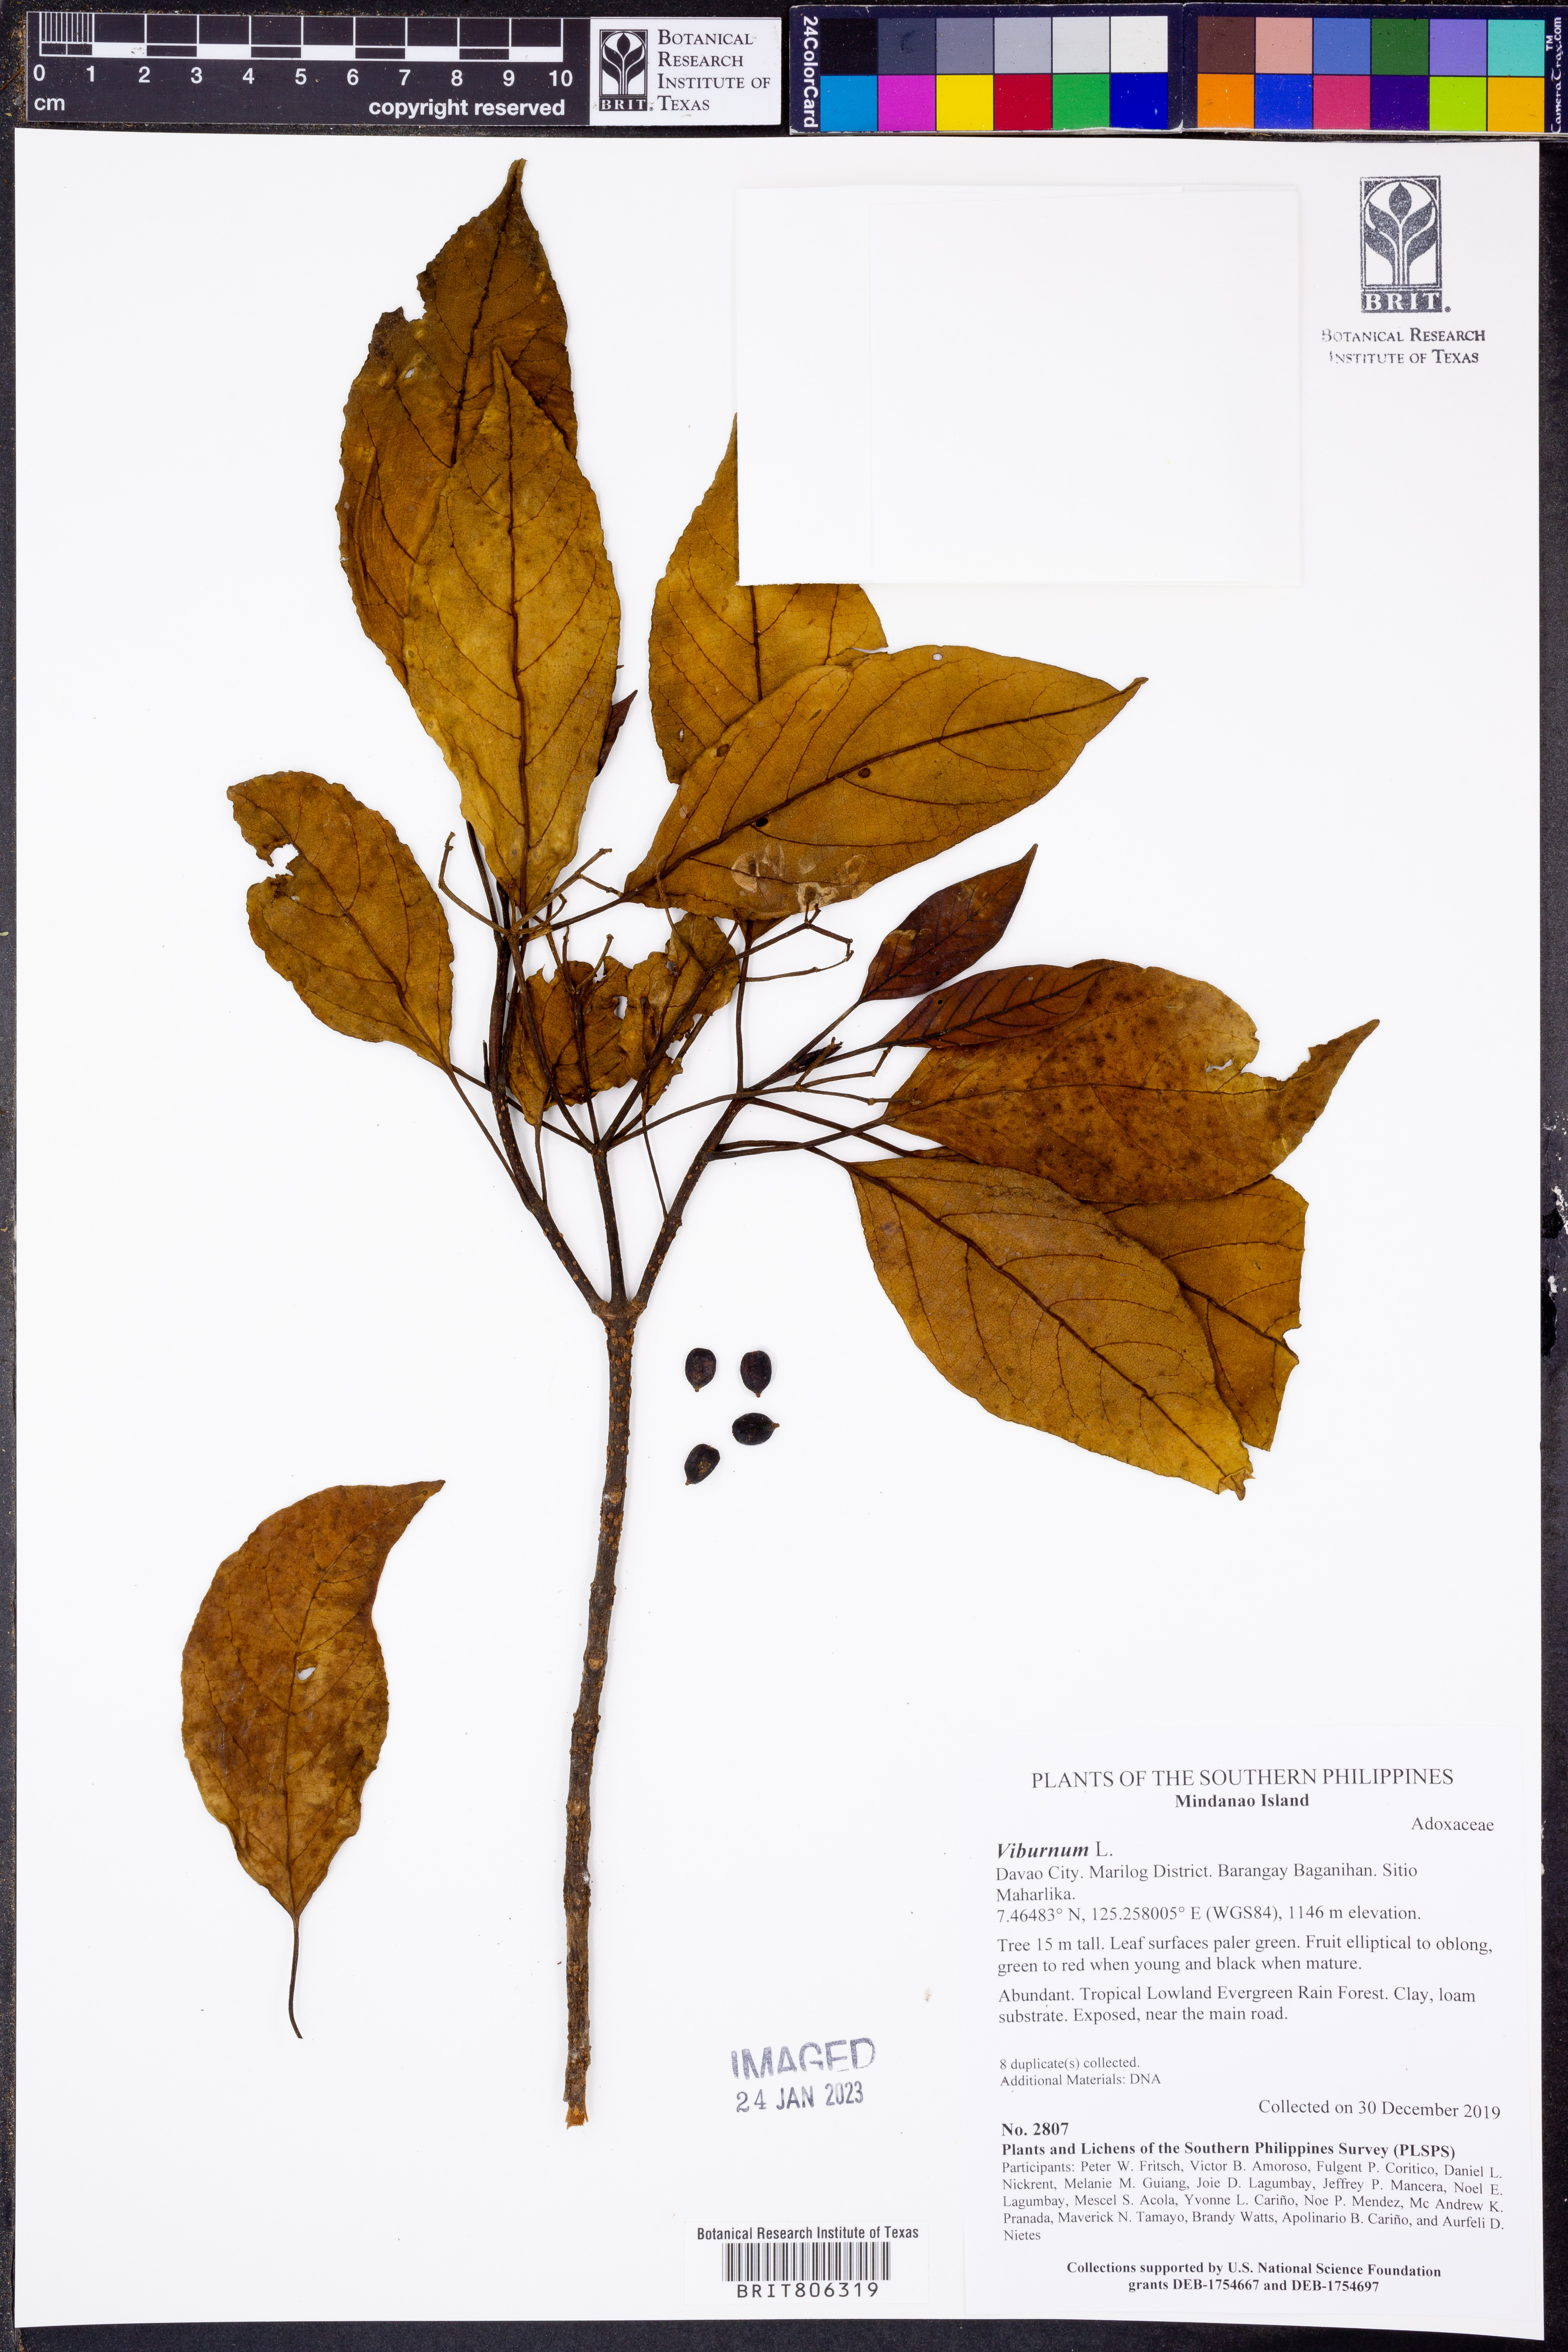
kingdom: Plantae
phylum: Tracheophyta
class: Magnoliopsida
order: Dipsacales
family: Viburnaceae
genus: Viburnum
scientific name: Viburnum
